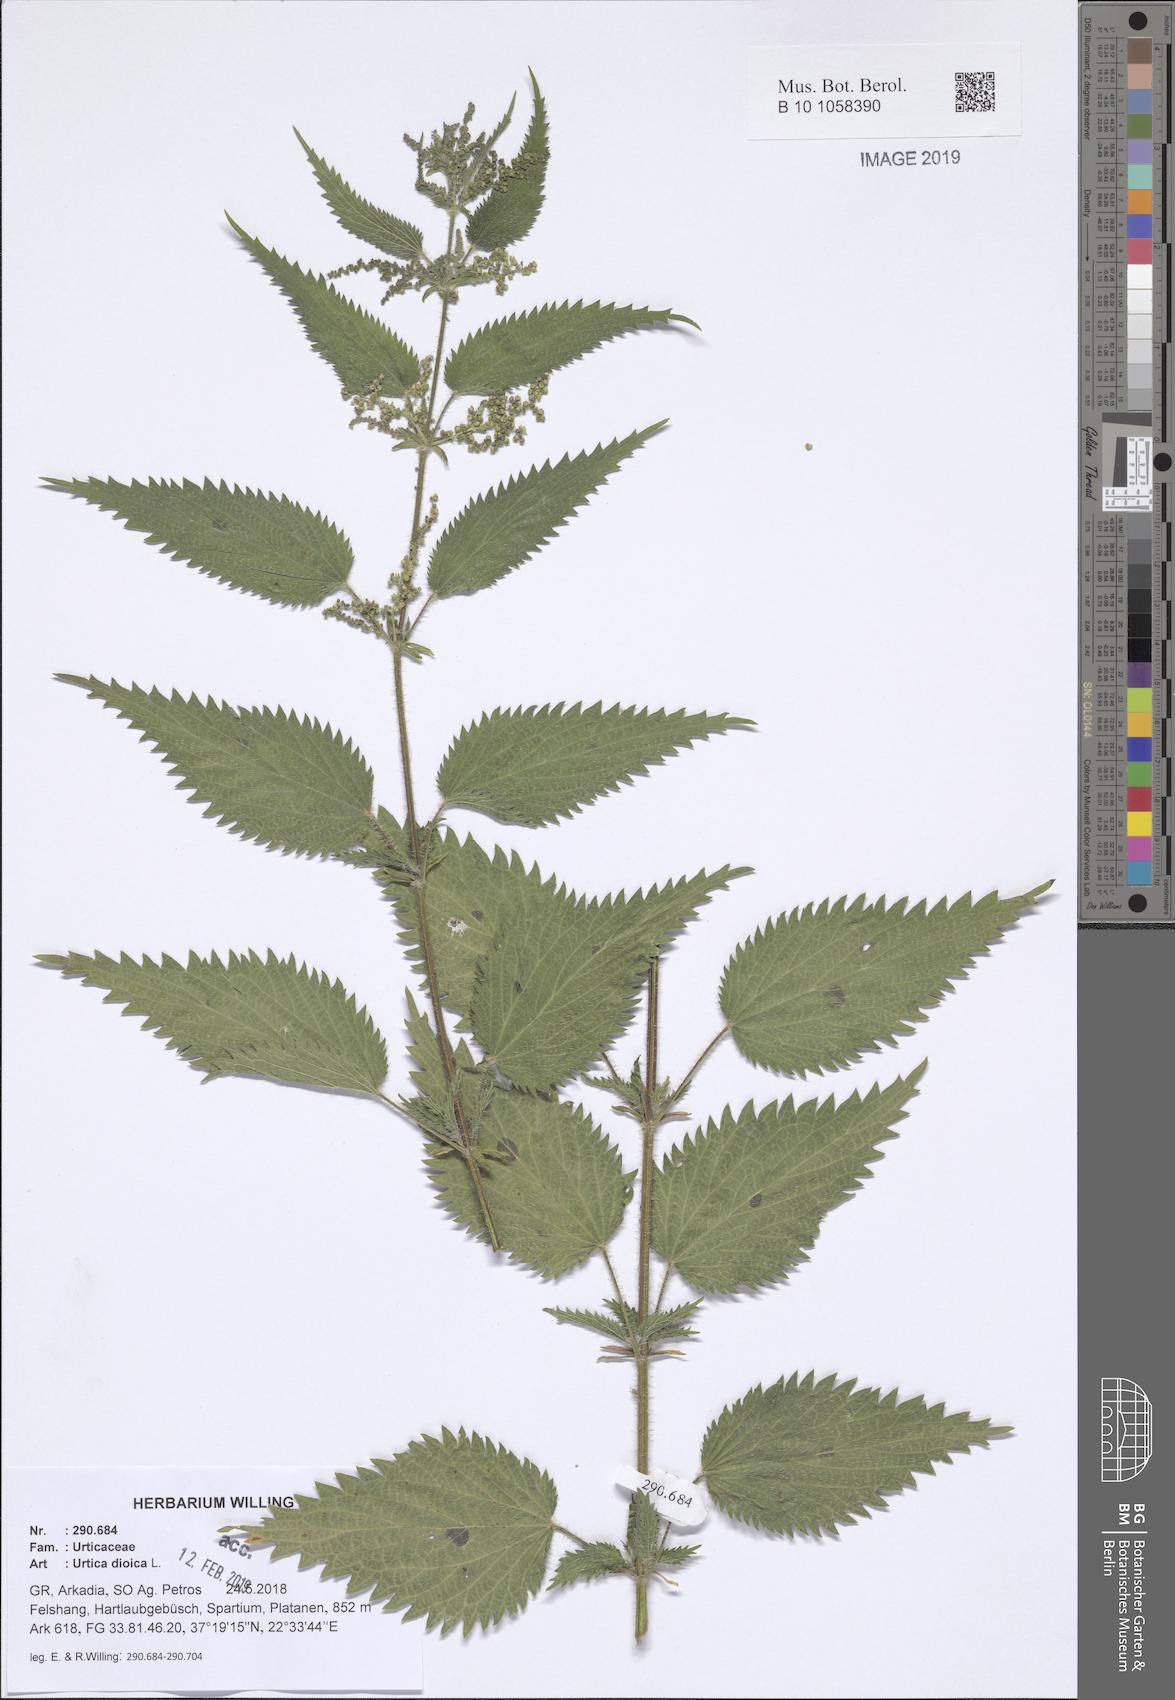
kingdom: Plantae
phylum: Tracheophyta
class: Magnoliopsida
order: Rosales
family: Urticaceae
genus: Urtica
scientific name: Urtica dioica
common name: Common nettle
